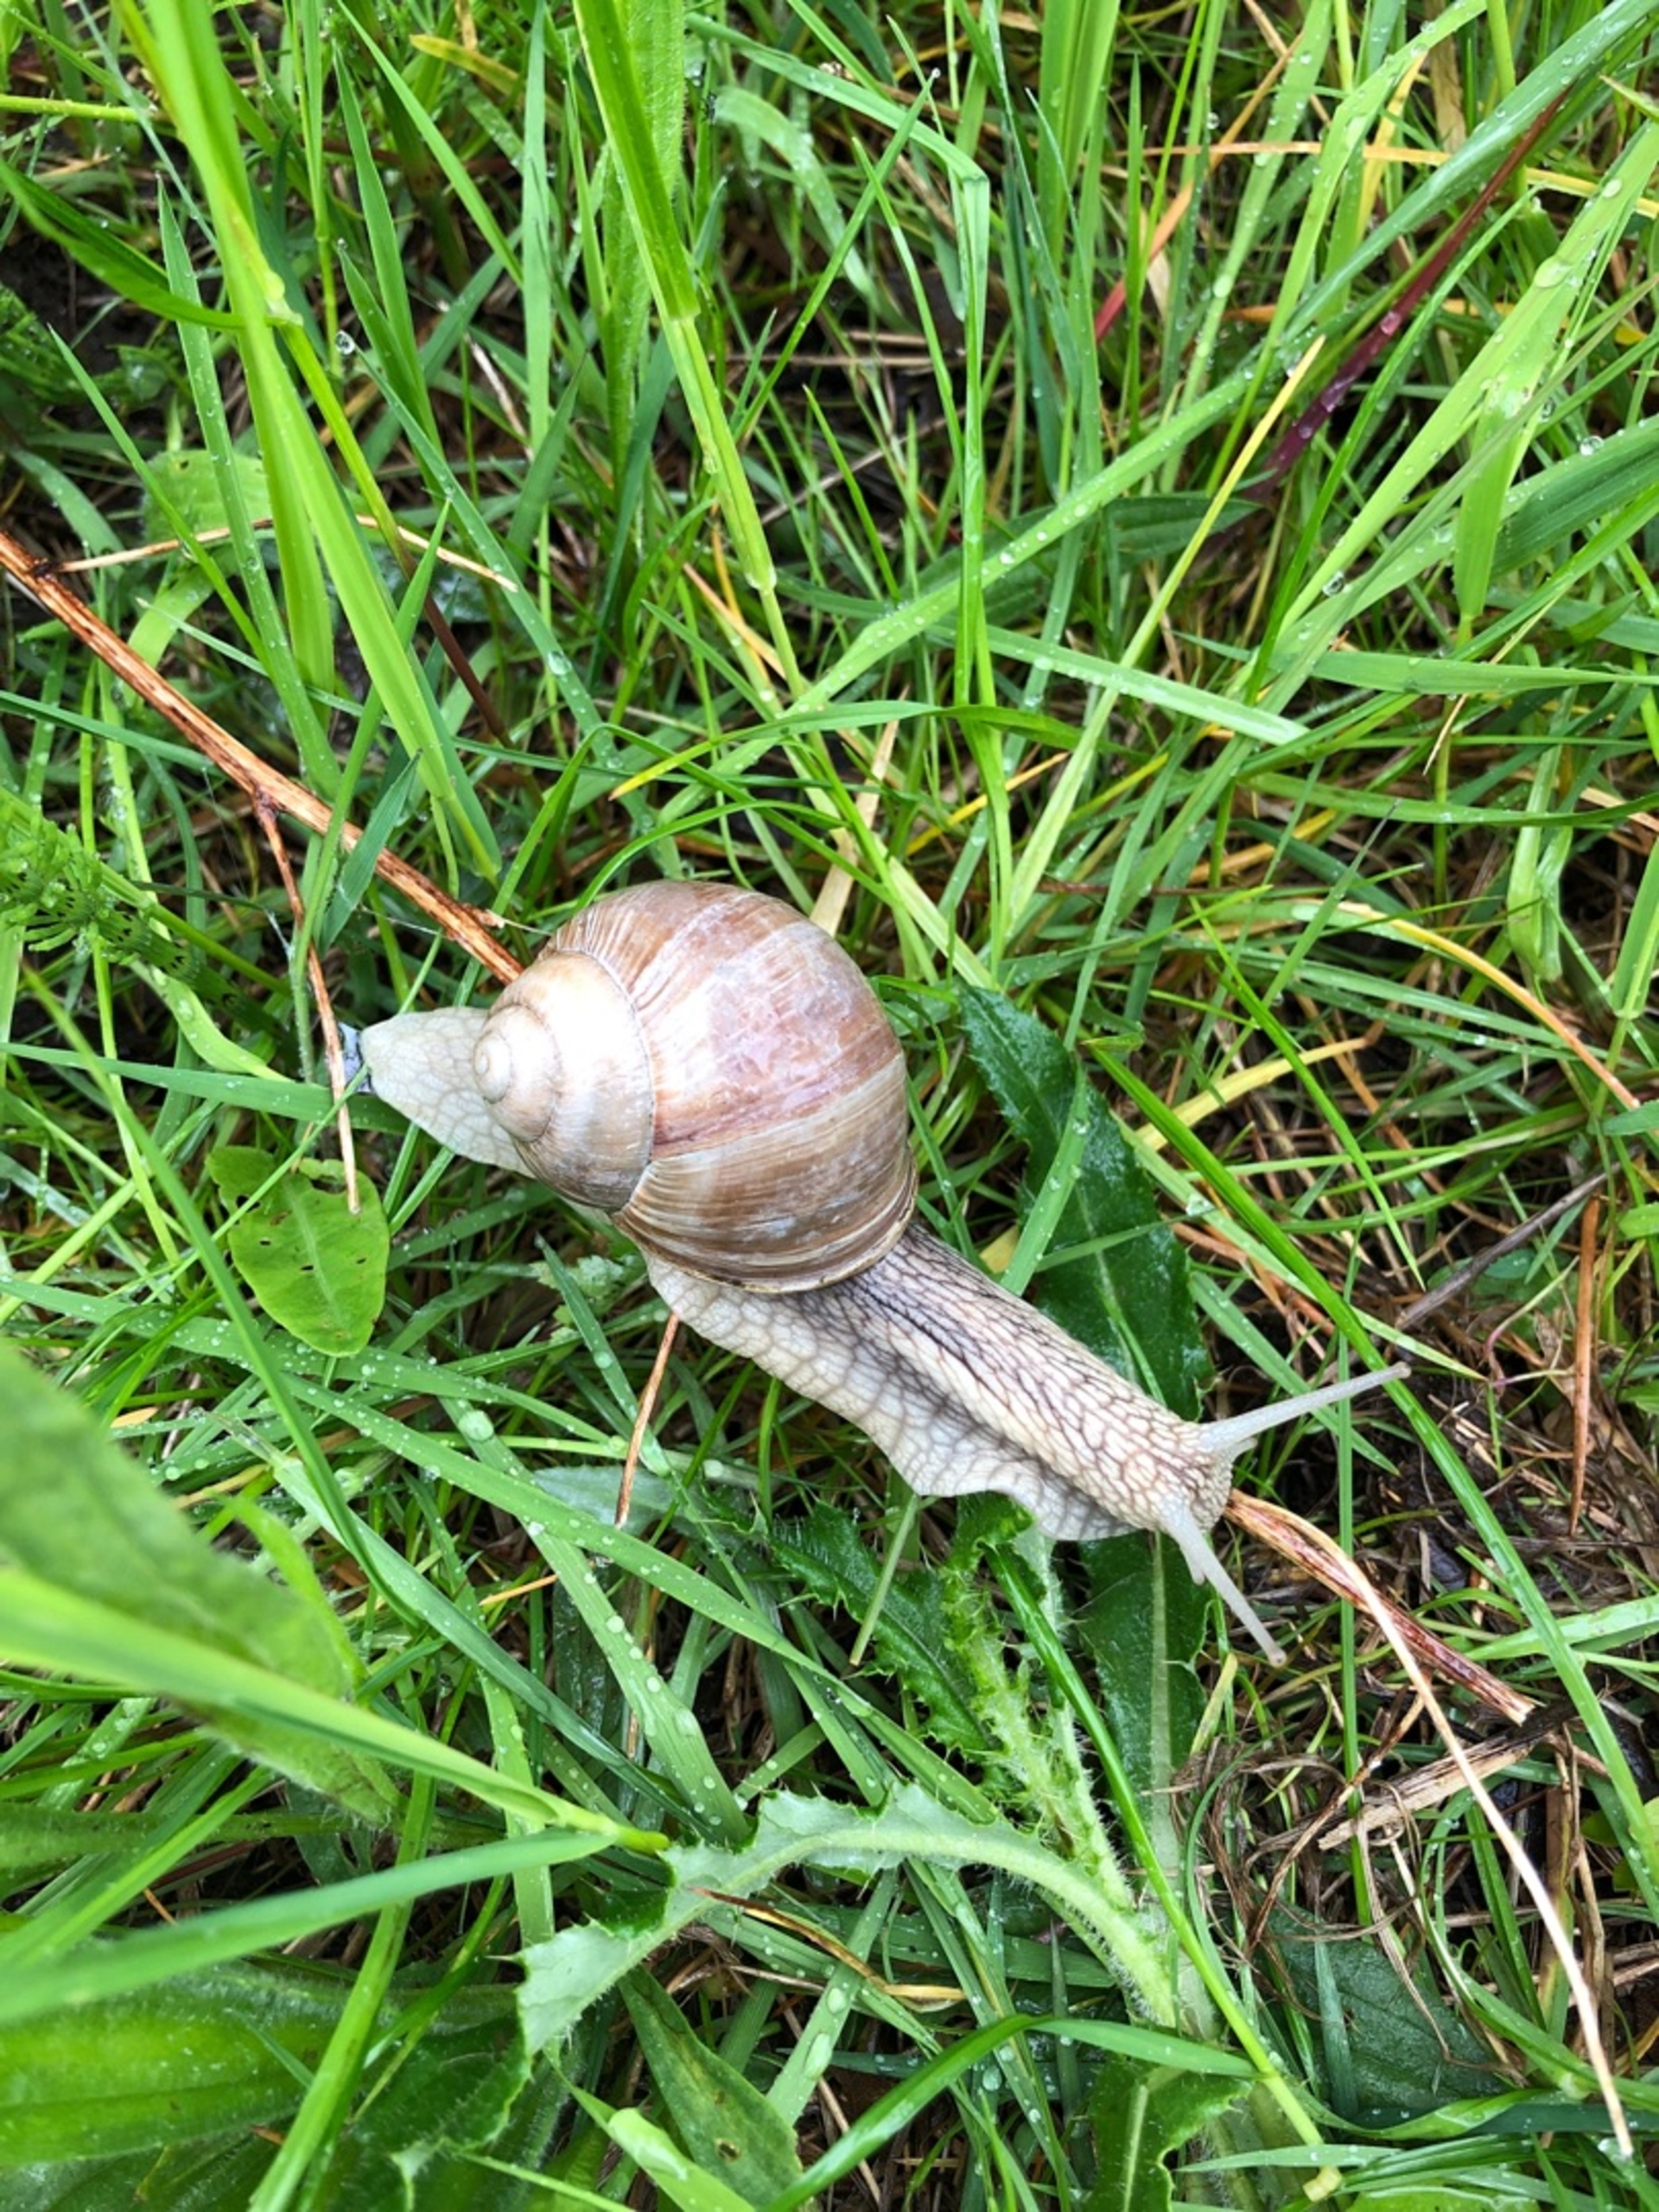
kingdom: Animalia
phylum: Mollusca
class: Gastropoda
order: Stylommatophora
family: Helicidae
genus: Helix
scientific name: Helix pomatia
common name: Vinbjergsnegl
